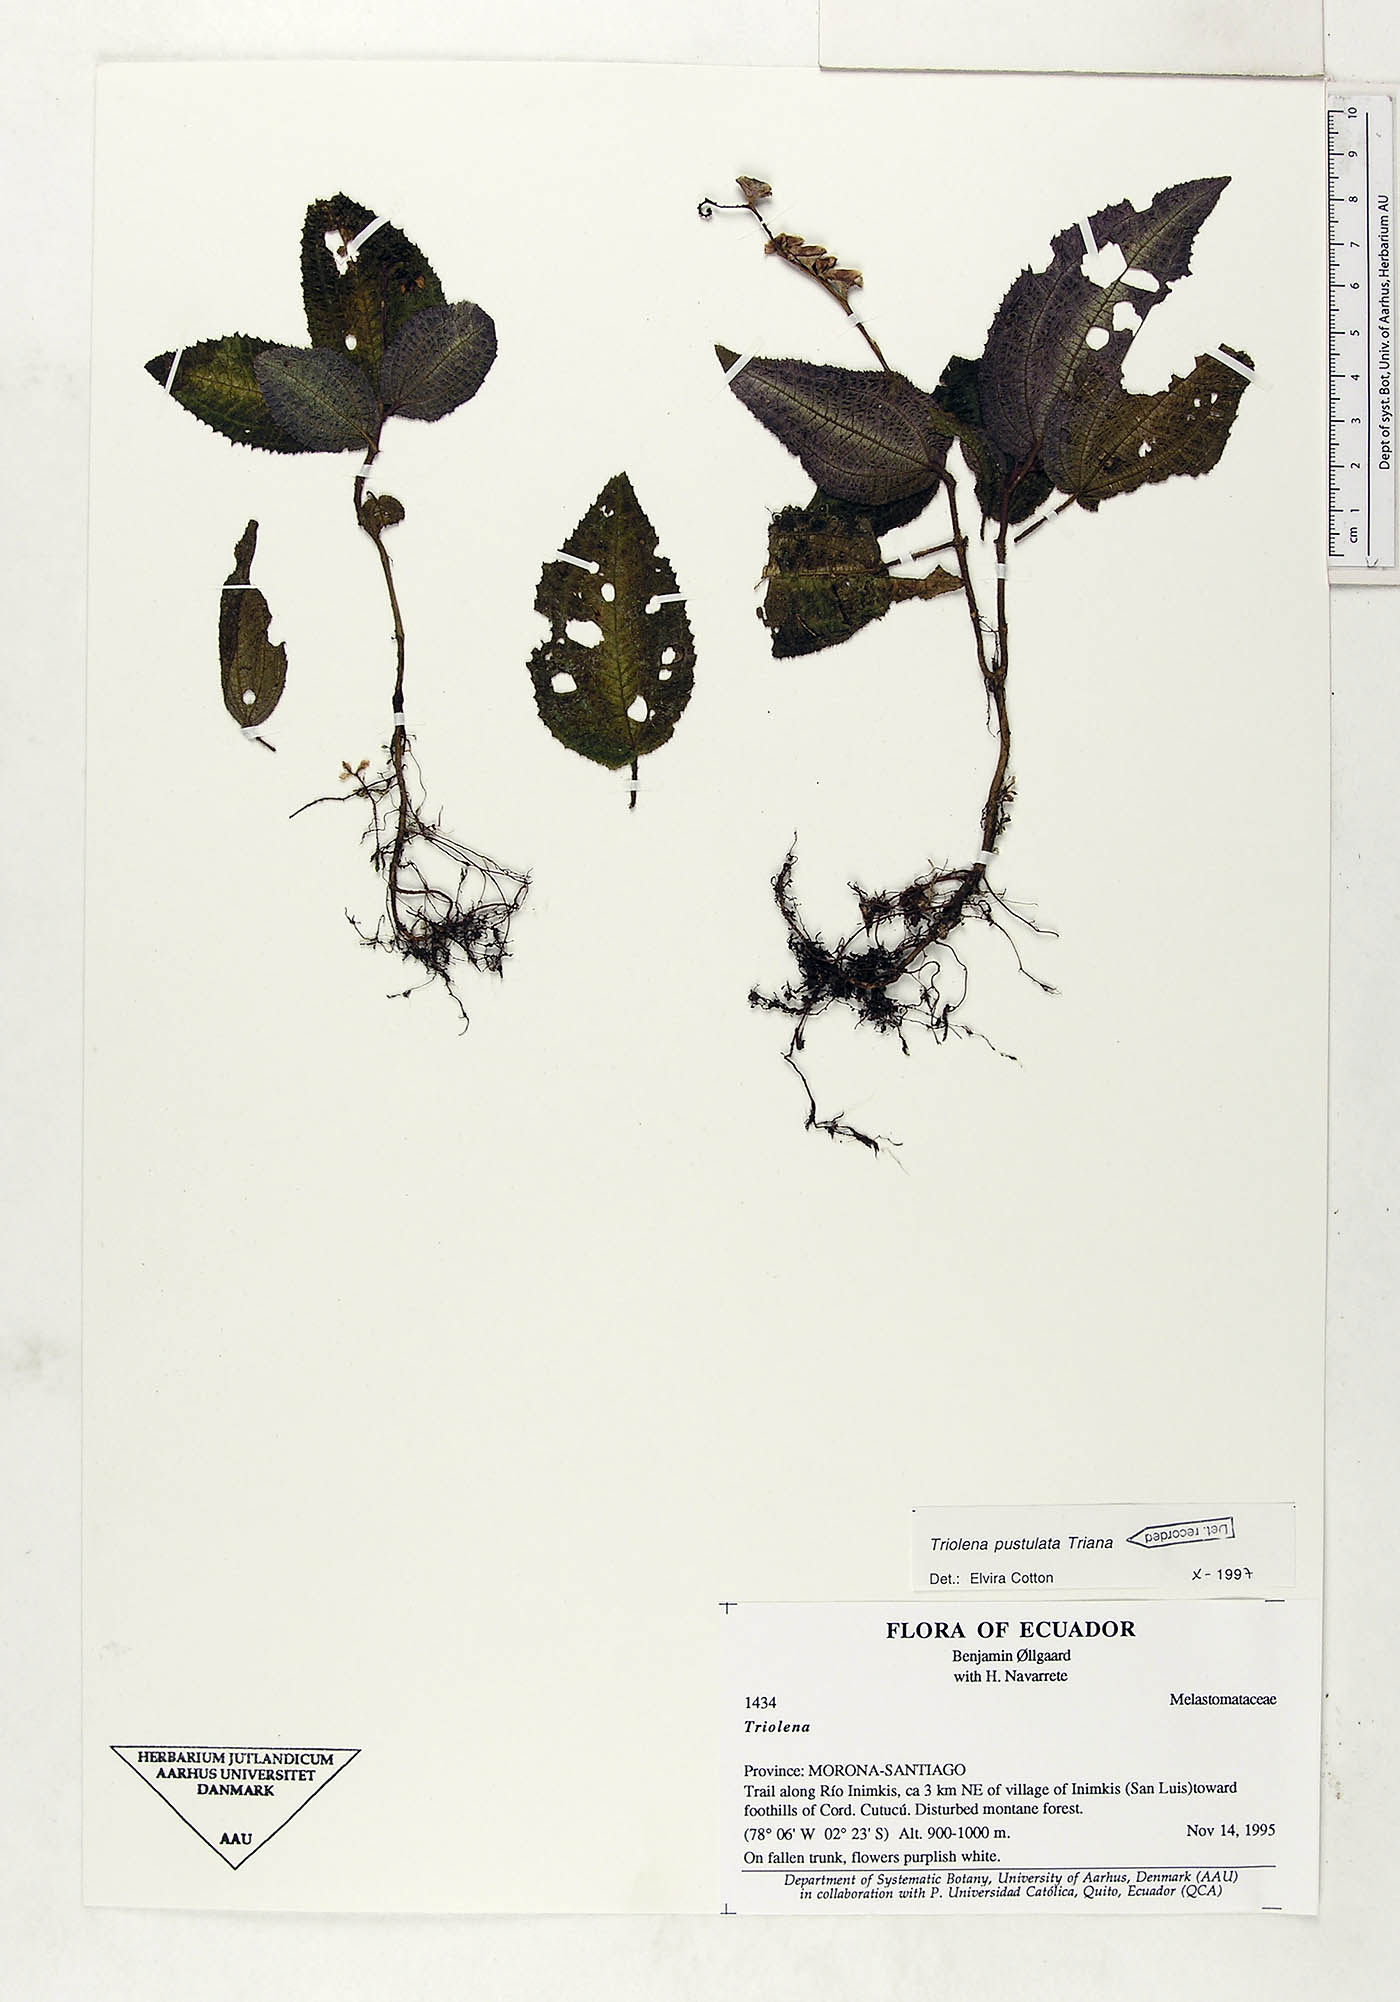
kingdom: Plantae
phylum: Tracheophyta
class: Magnoliopsida
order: Myrtales
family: Melastomataceae
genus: Triolena
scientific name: Triolena pustulata
